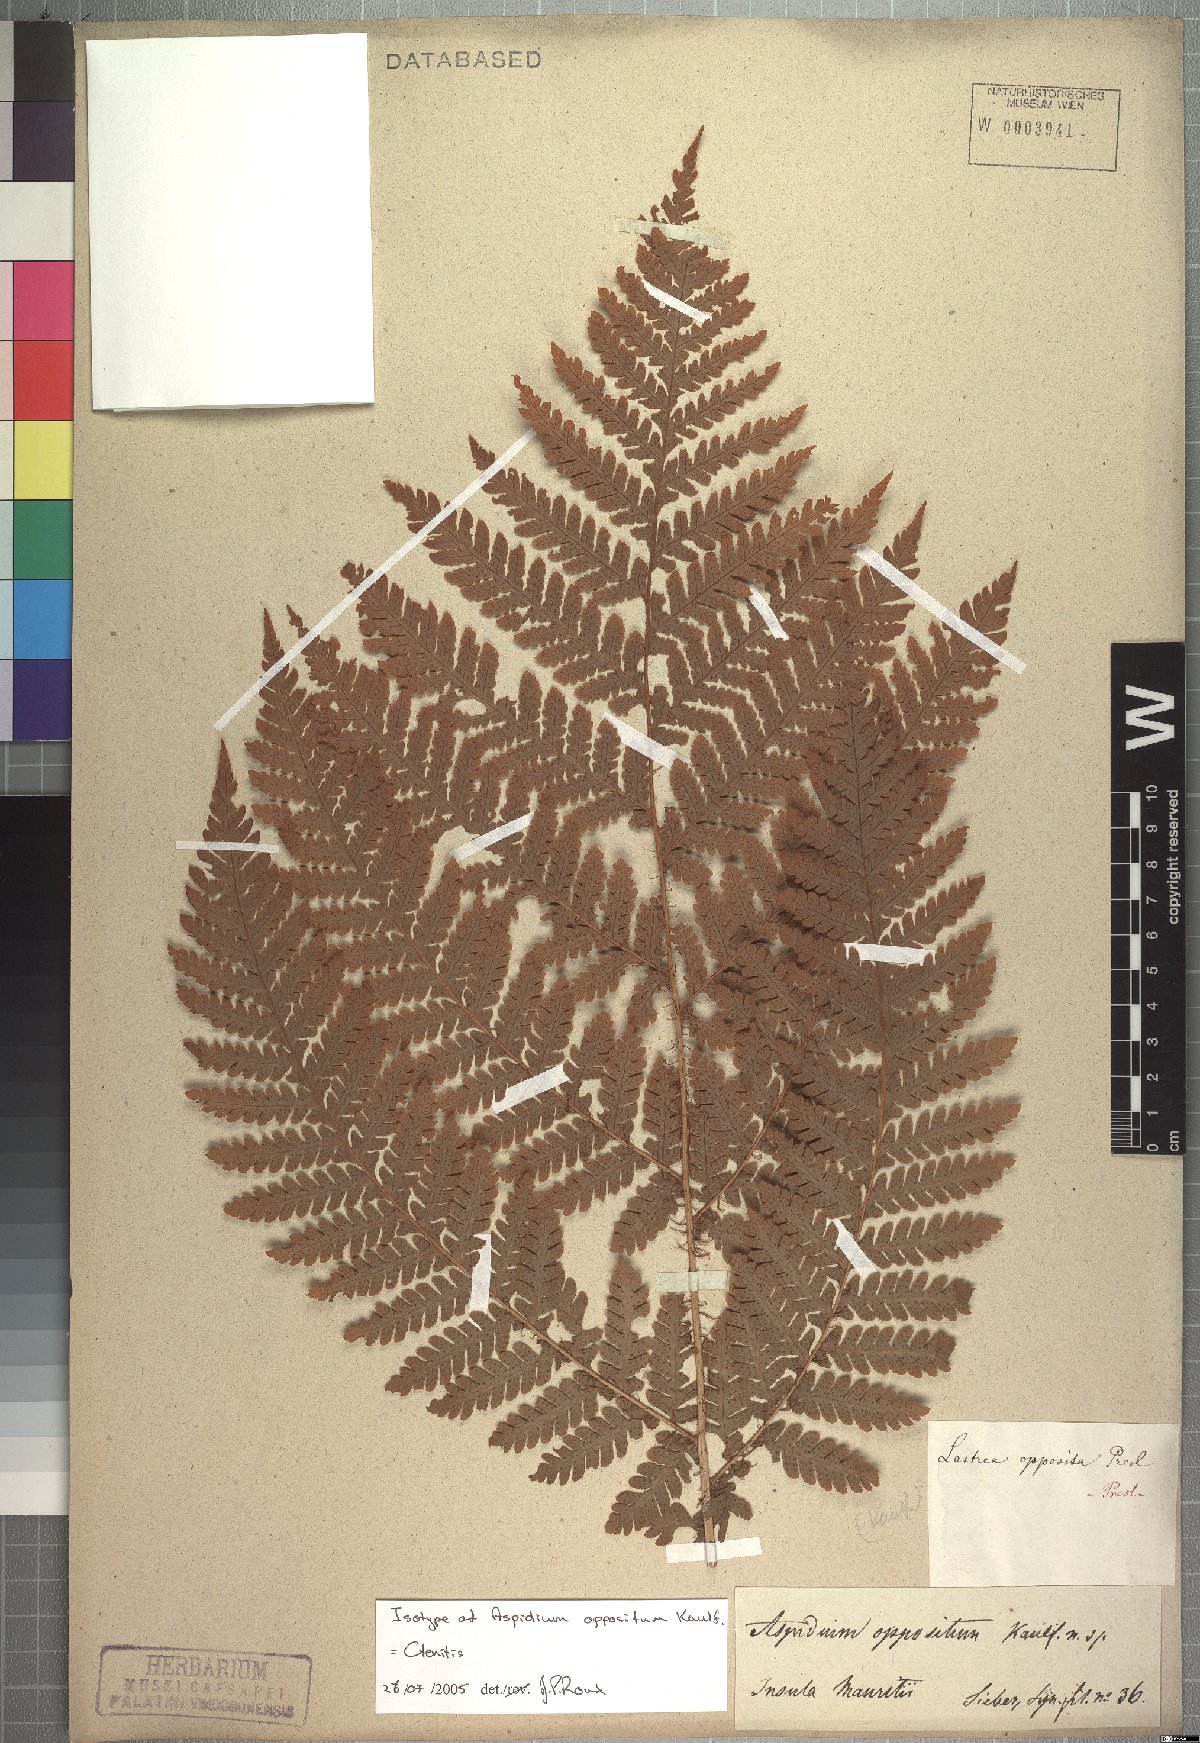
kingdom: Plantae
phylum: Tracheophyta
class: Polypodiopsida
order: Polypodiales
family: Dryopteridaceae
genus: Ctenitis
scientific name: Ctenitis
